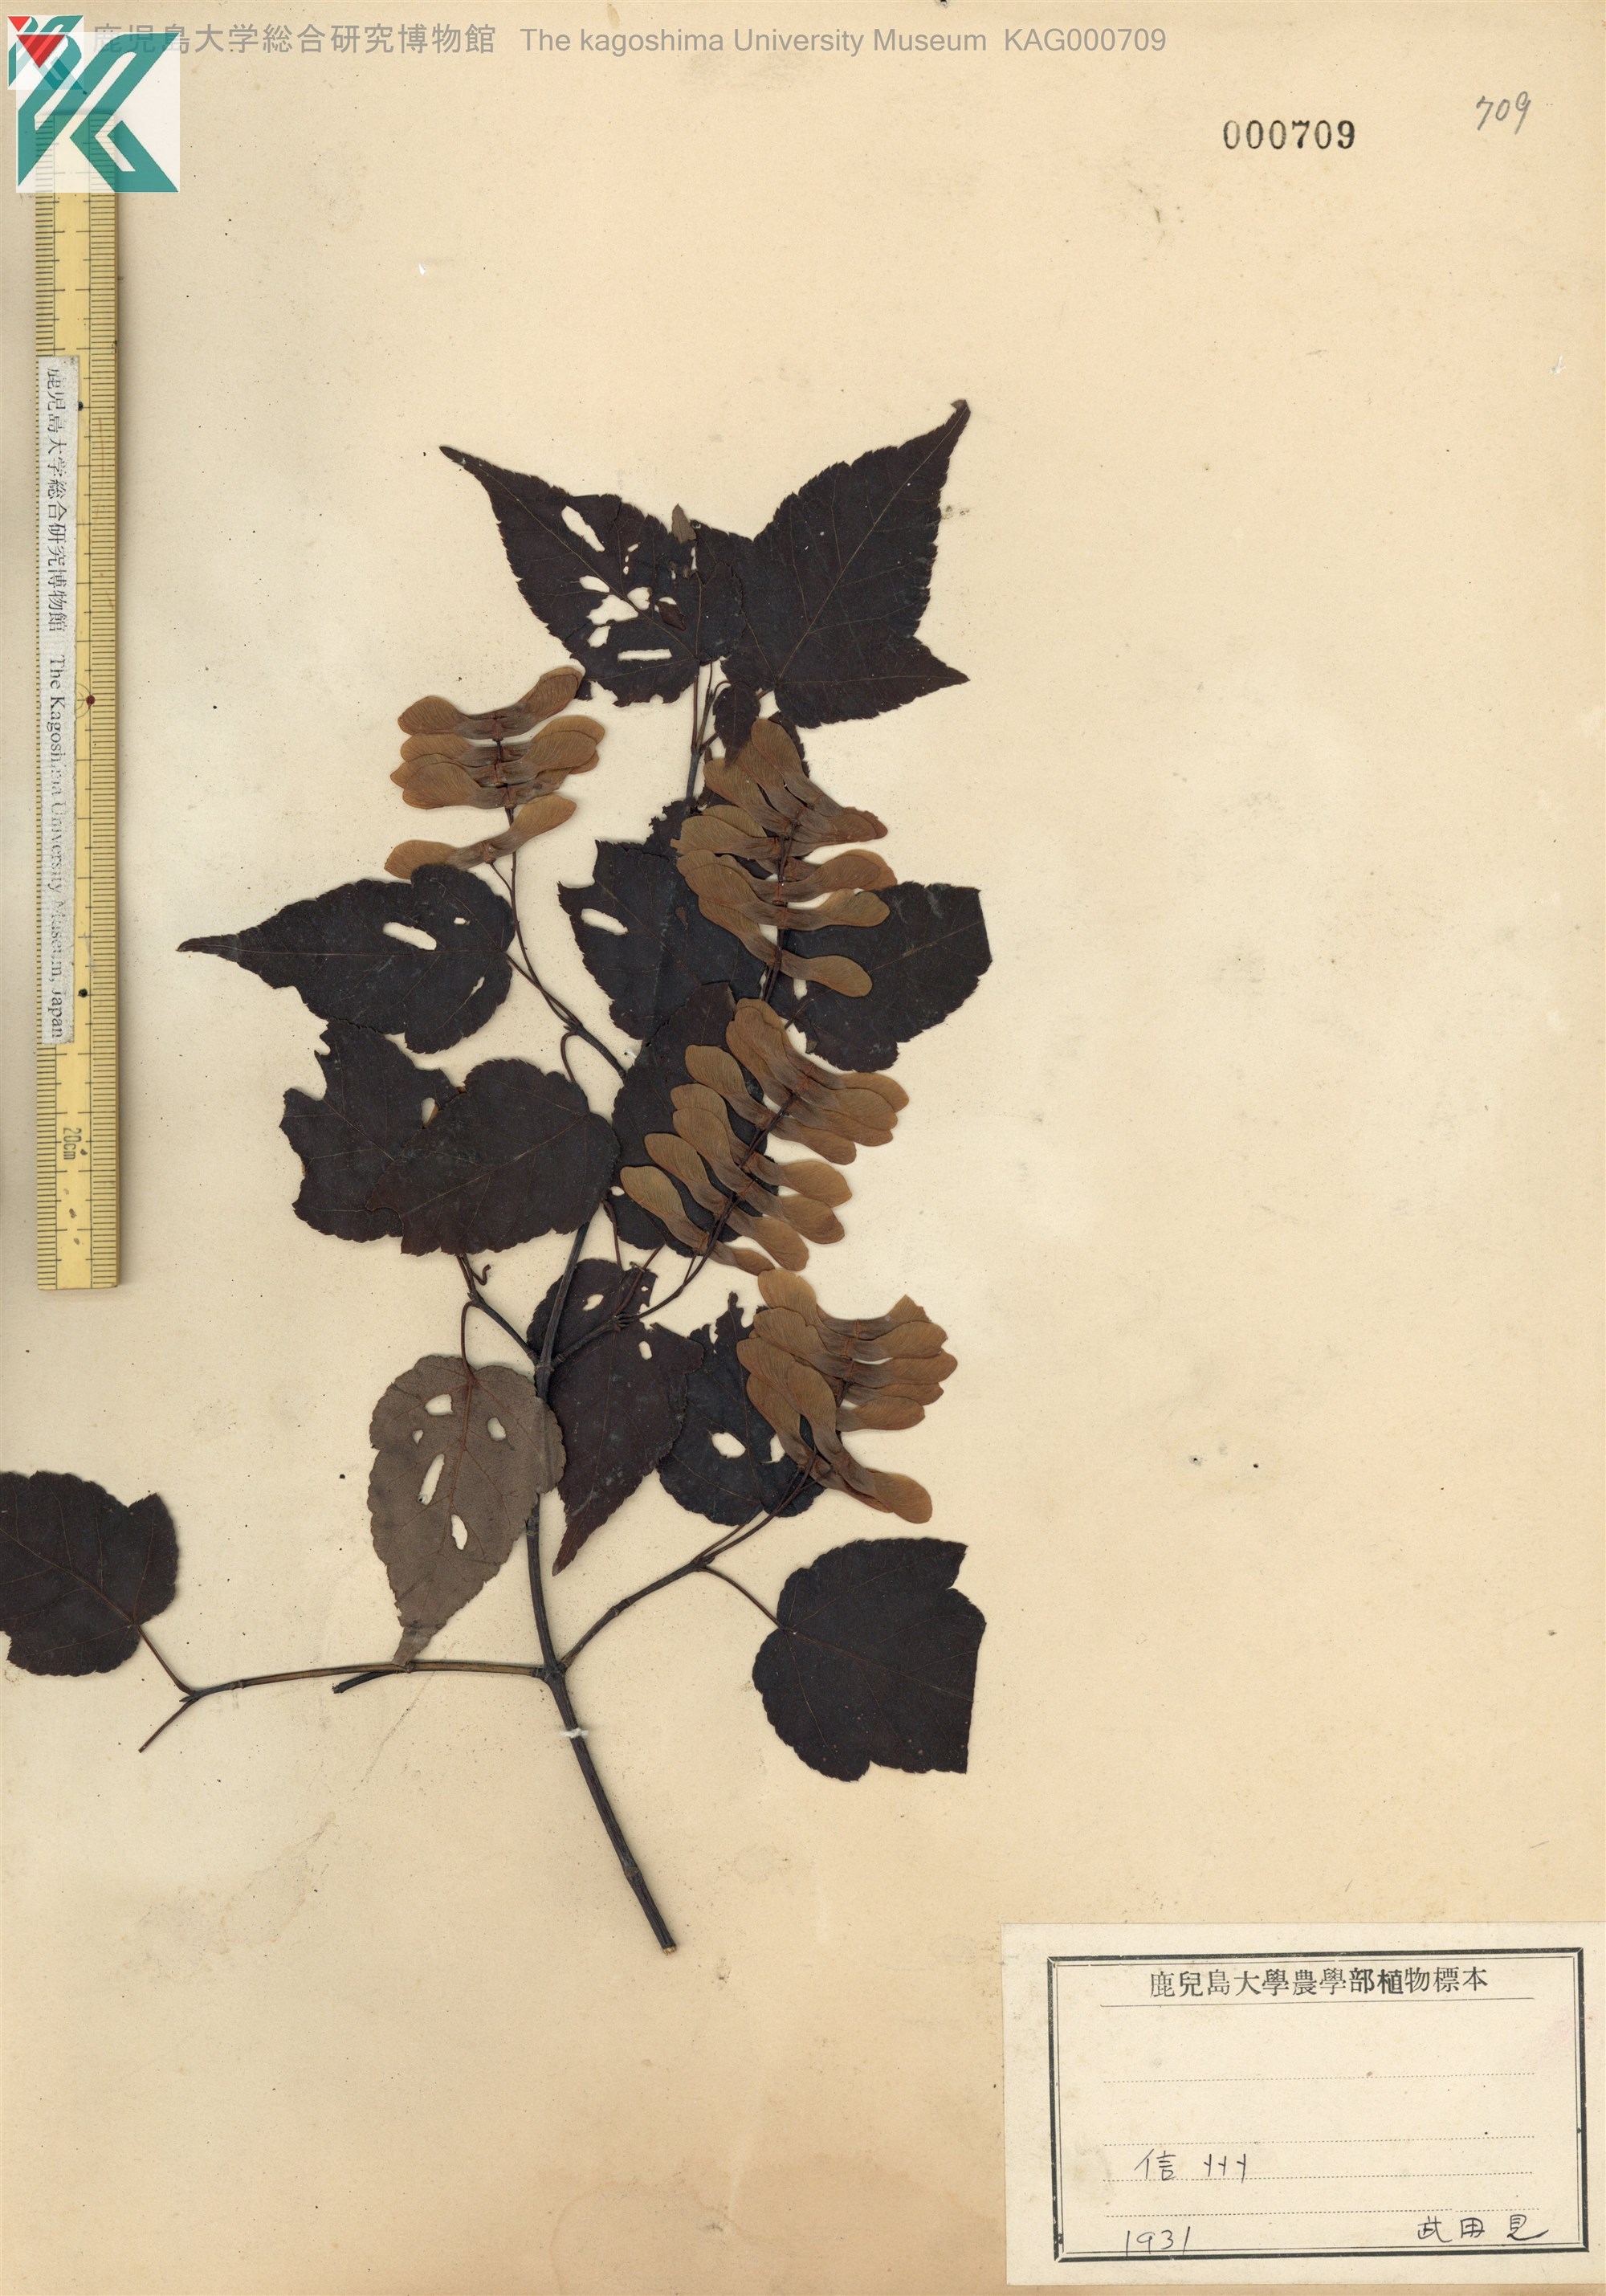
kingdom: Plantae
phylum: Tracheophyta
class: Magnoliopsida
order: Sapindales
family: Sapindaceae
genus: Acer
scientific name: Acer crataegifolium
